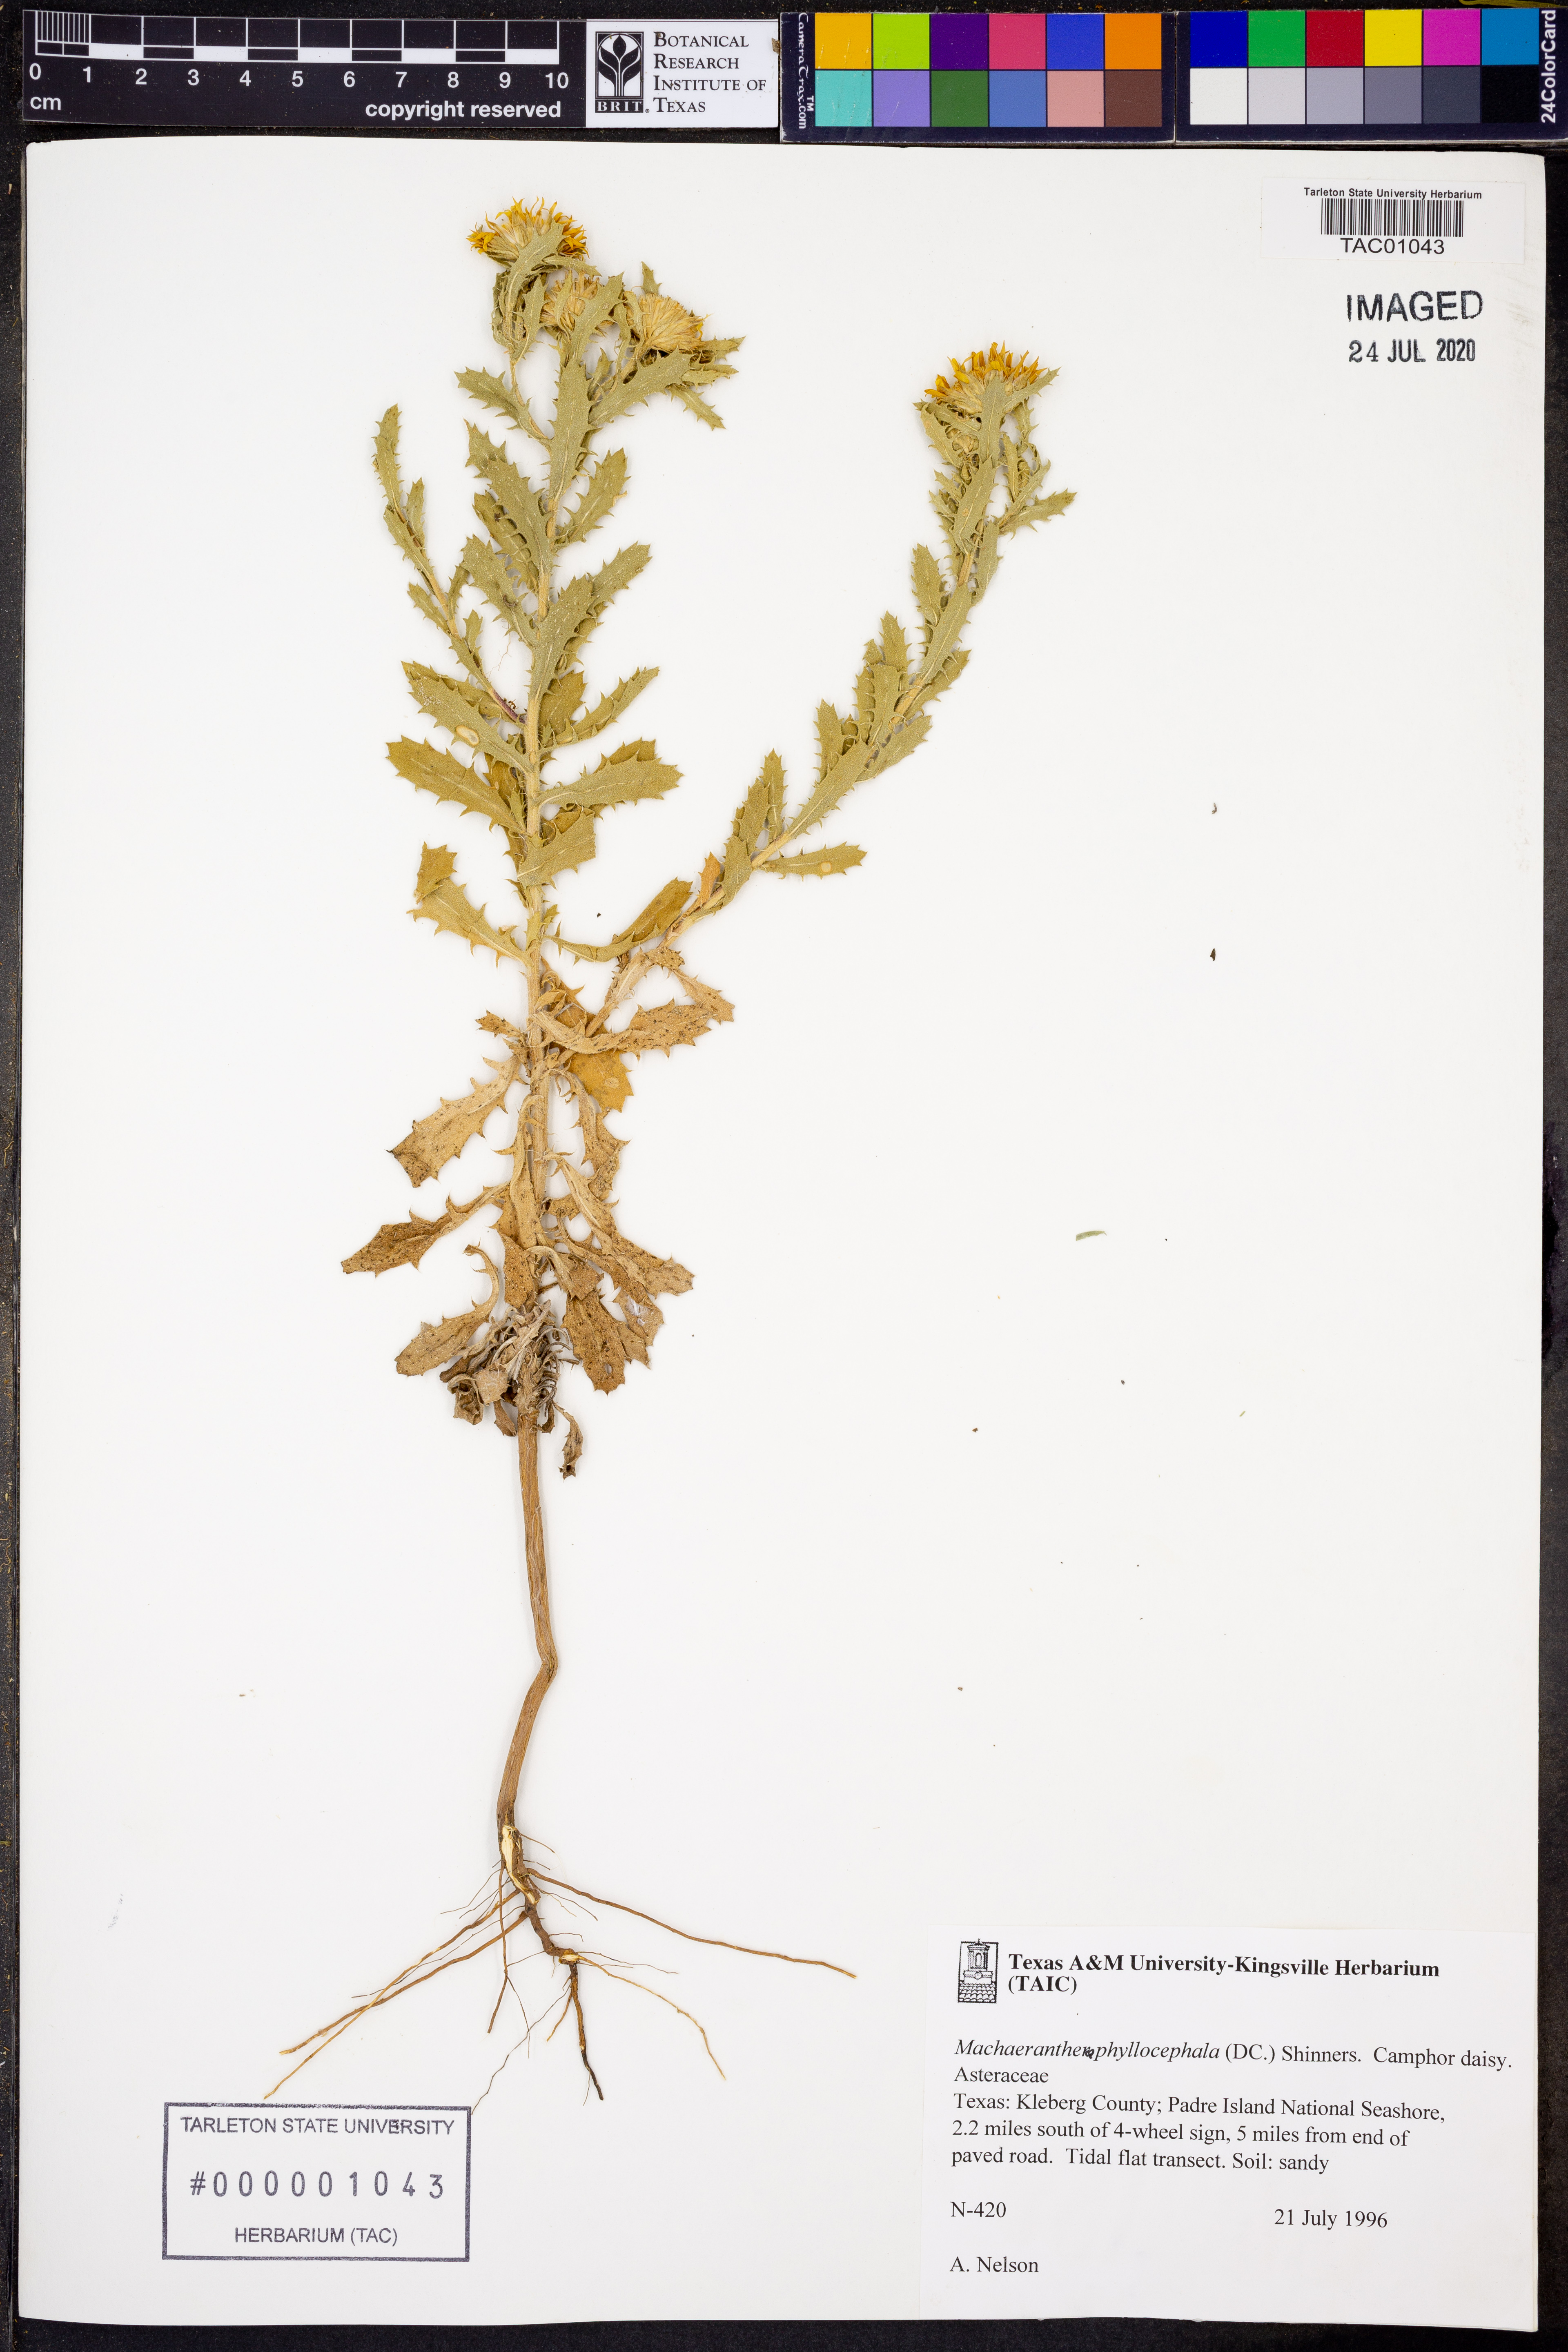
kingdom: Plantae
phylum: Tracheophyta
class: Magnoliopsida
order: Asterales
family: Asteraceae
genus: Rayjacksonia
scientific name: Rayjacksonia phyllocephala
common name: Gulf coast camphor daisy
